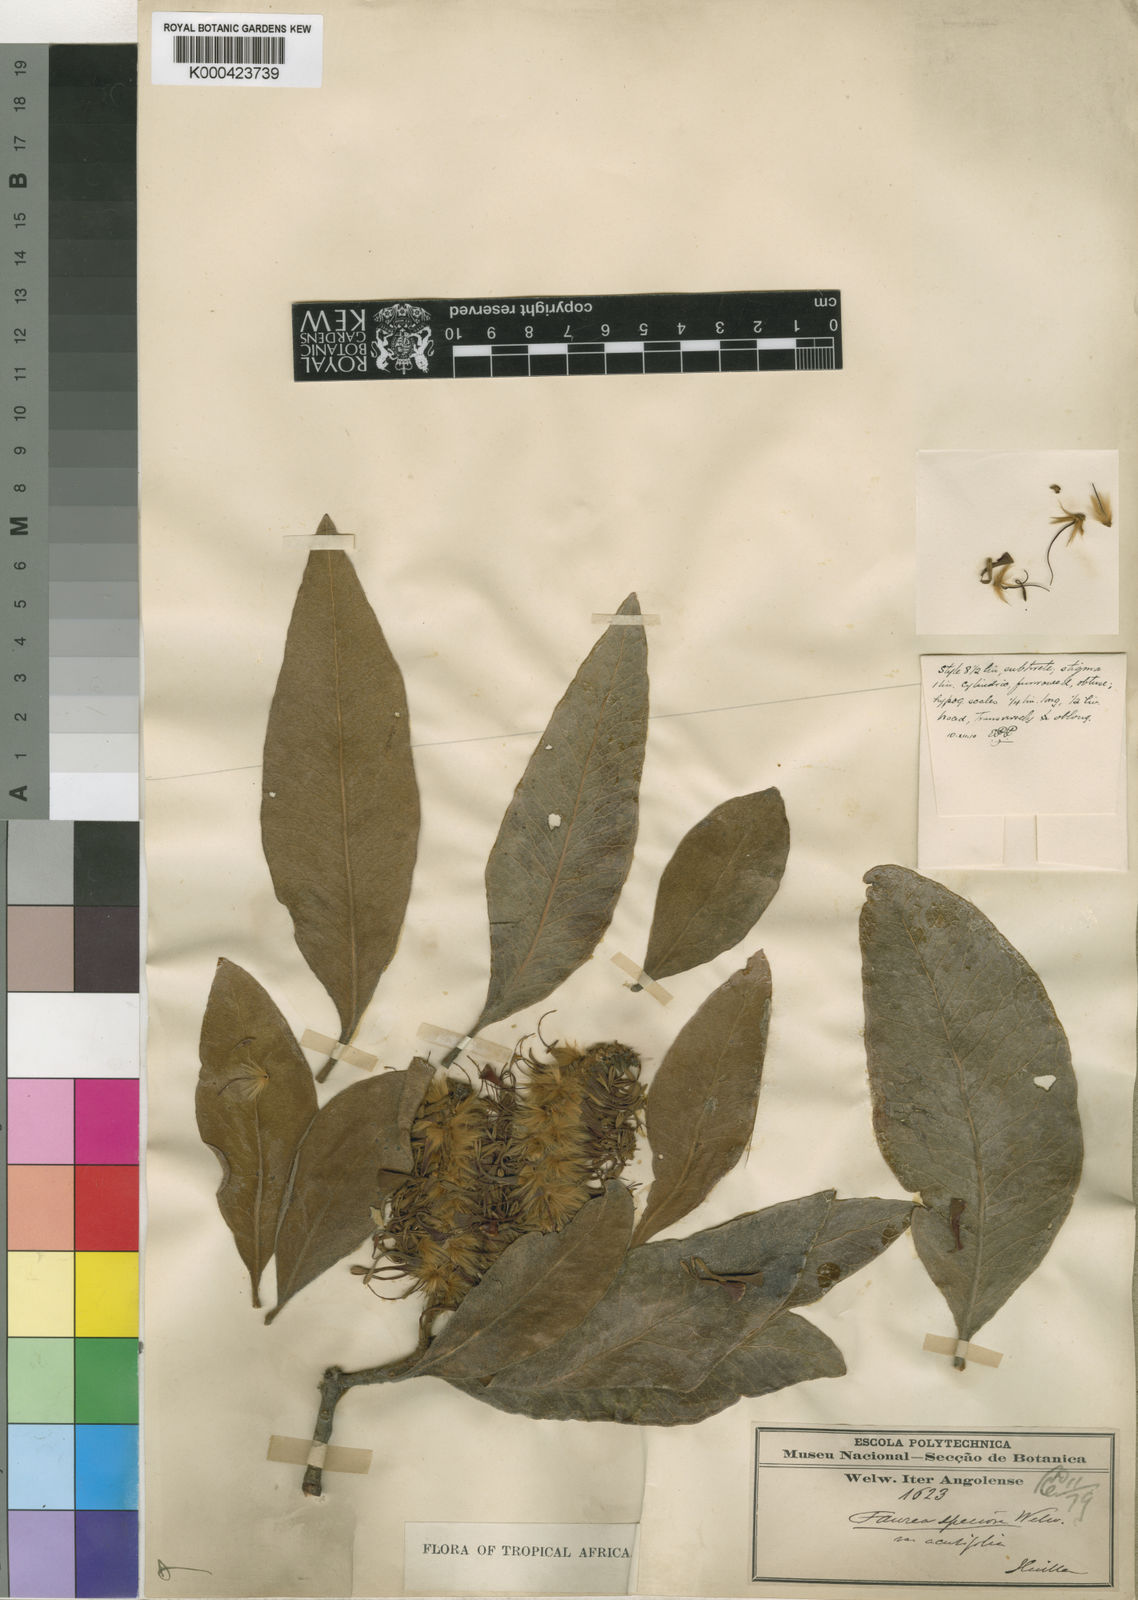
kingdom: Plantae
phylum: Tracheophyta
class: Magnoliopsida
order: Proteales
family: Proteaceae
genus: Faurea
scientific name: Faurea rochetiana
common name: Broad-leaved beech
